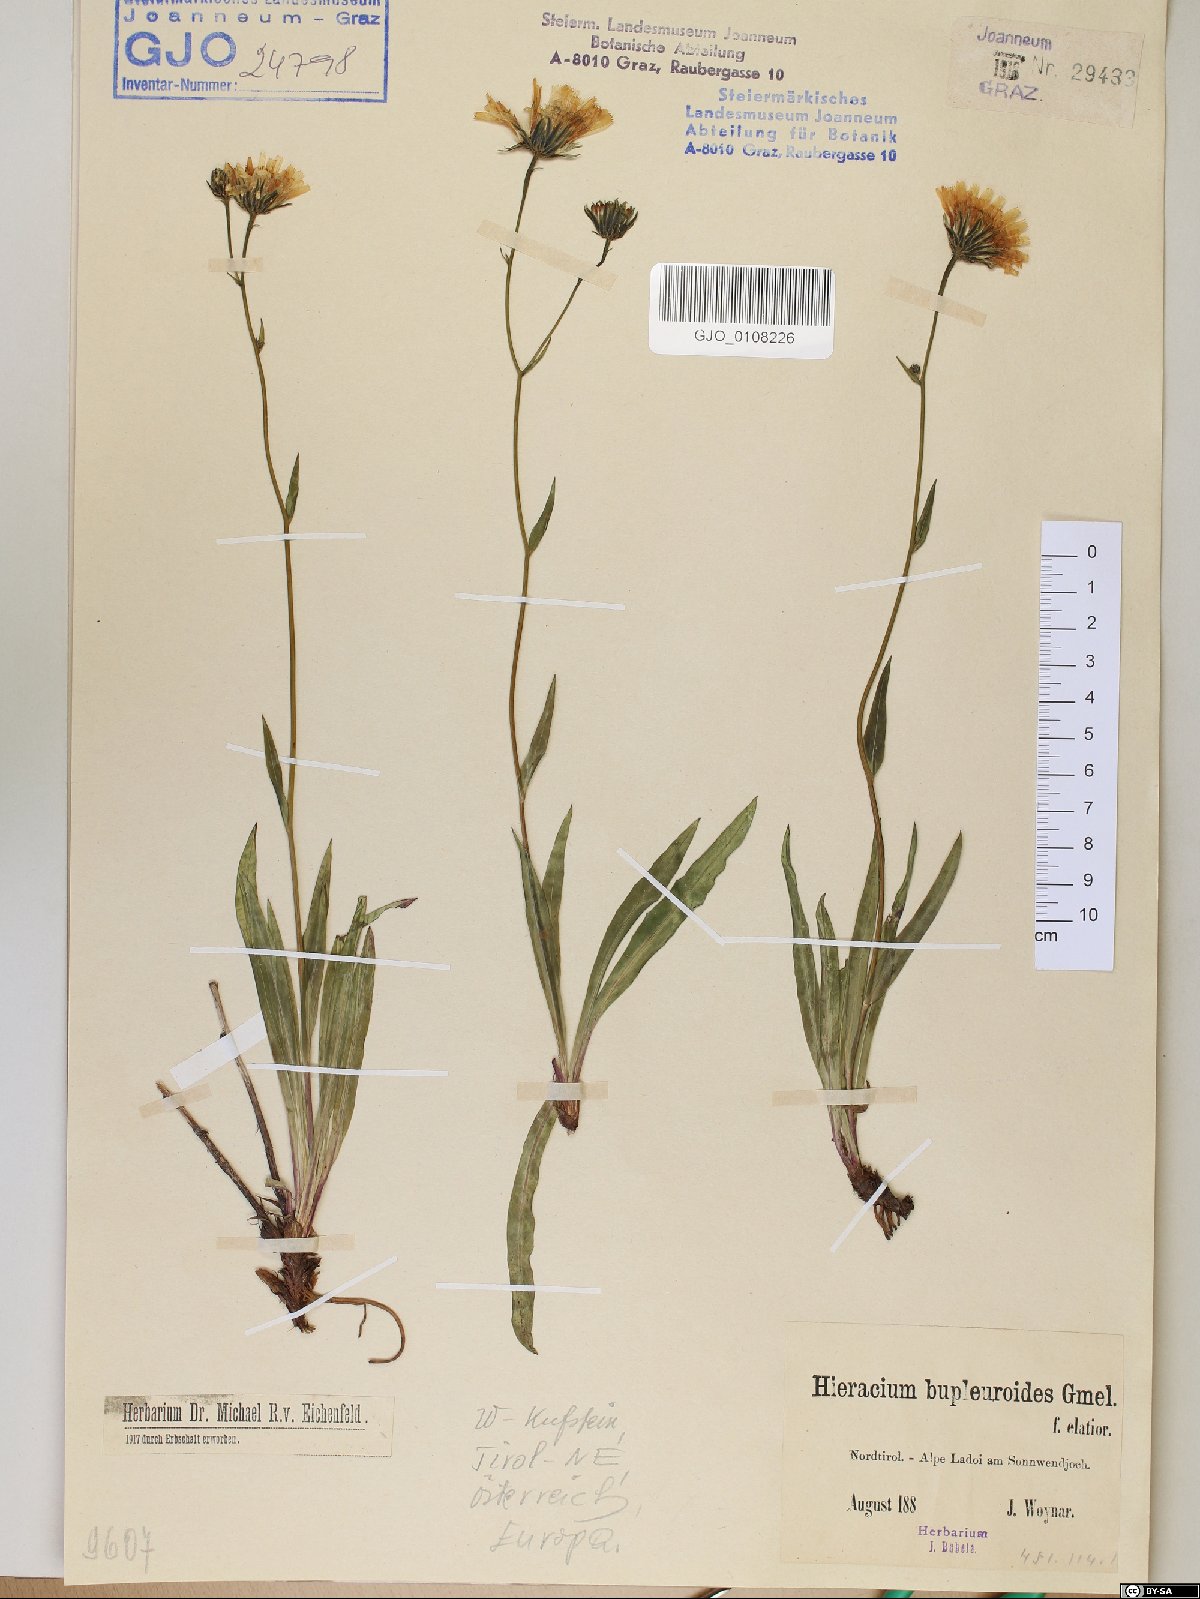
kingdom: Plantae
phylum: Tracheophyta
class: Magnoliopsida
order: Asterales
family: Asteraceae
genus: Hieracium
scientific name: Hieracium bupleuroides
